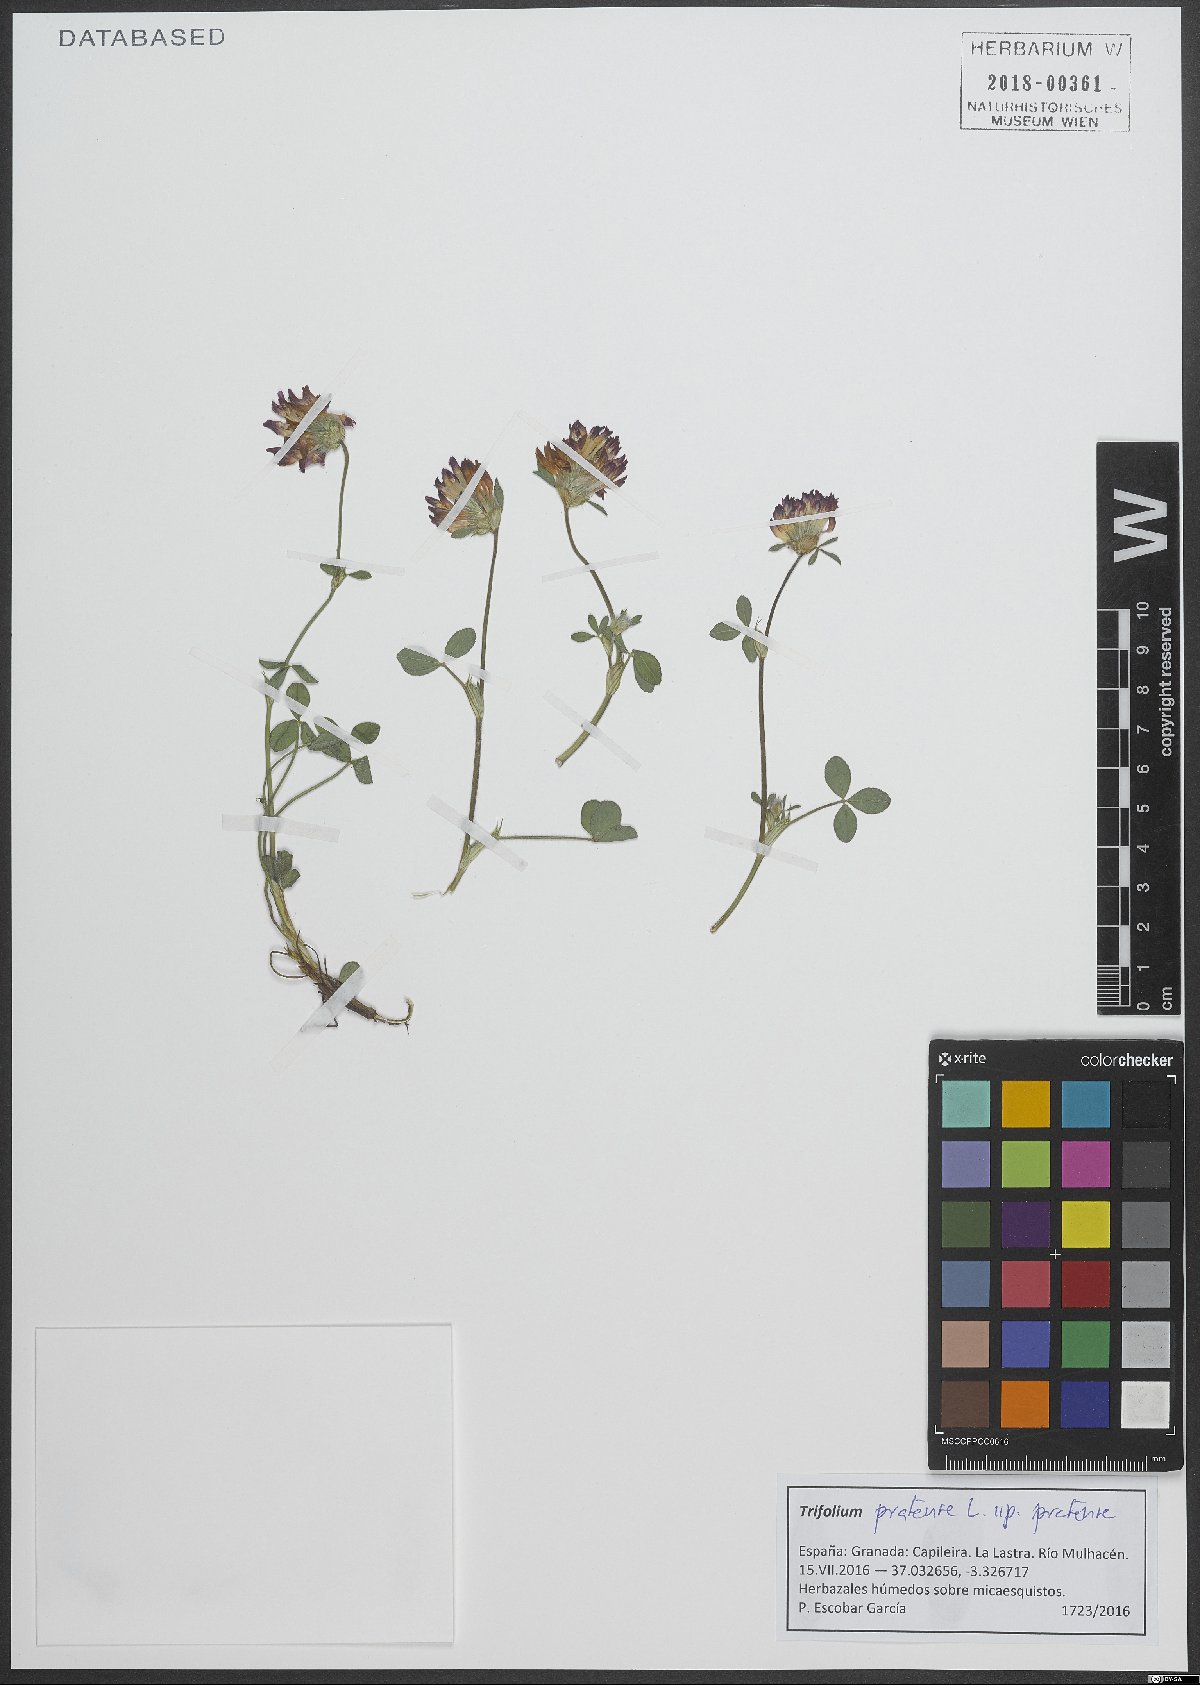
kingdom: Plantae
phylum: Tracheophyta
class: Magnoliopsida
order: Fabales
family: Fabaceae
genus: Trifolium
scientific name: Trifolium pratense
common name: Red clover
